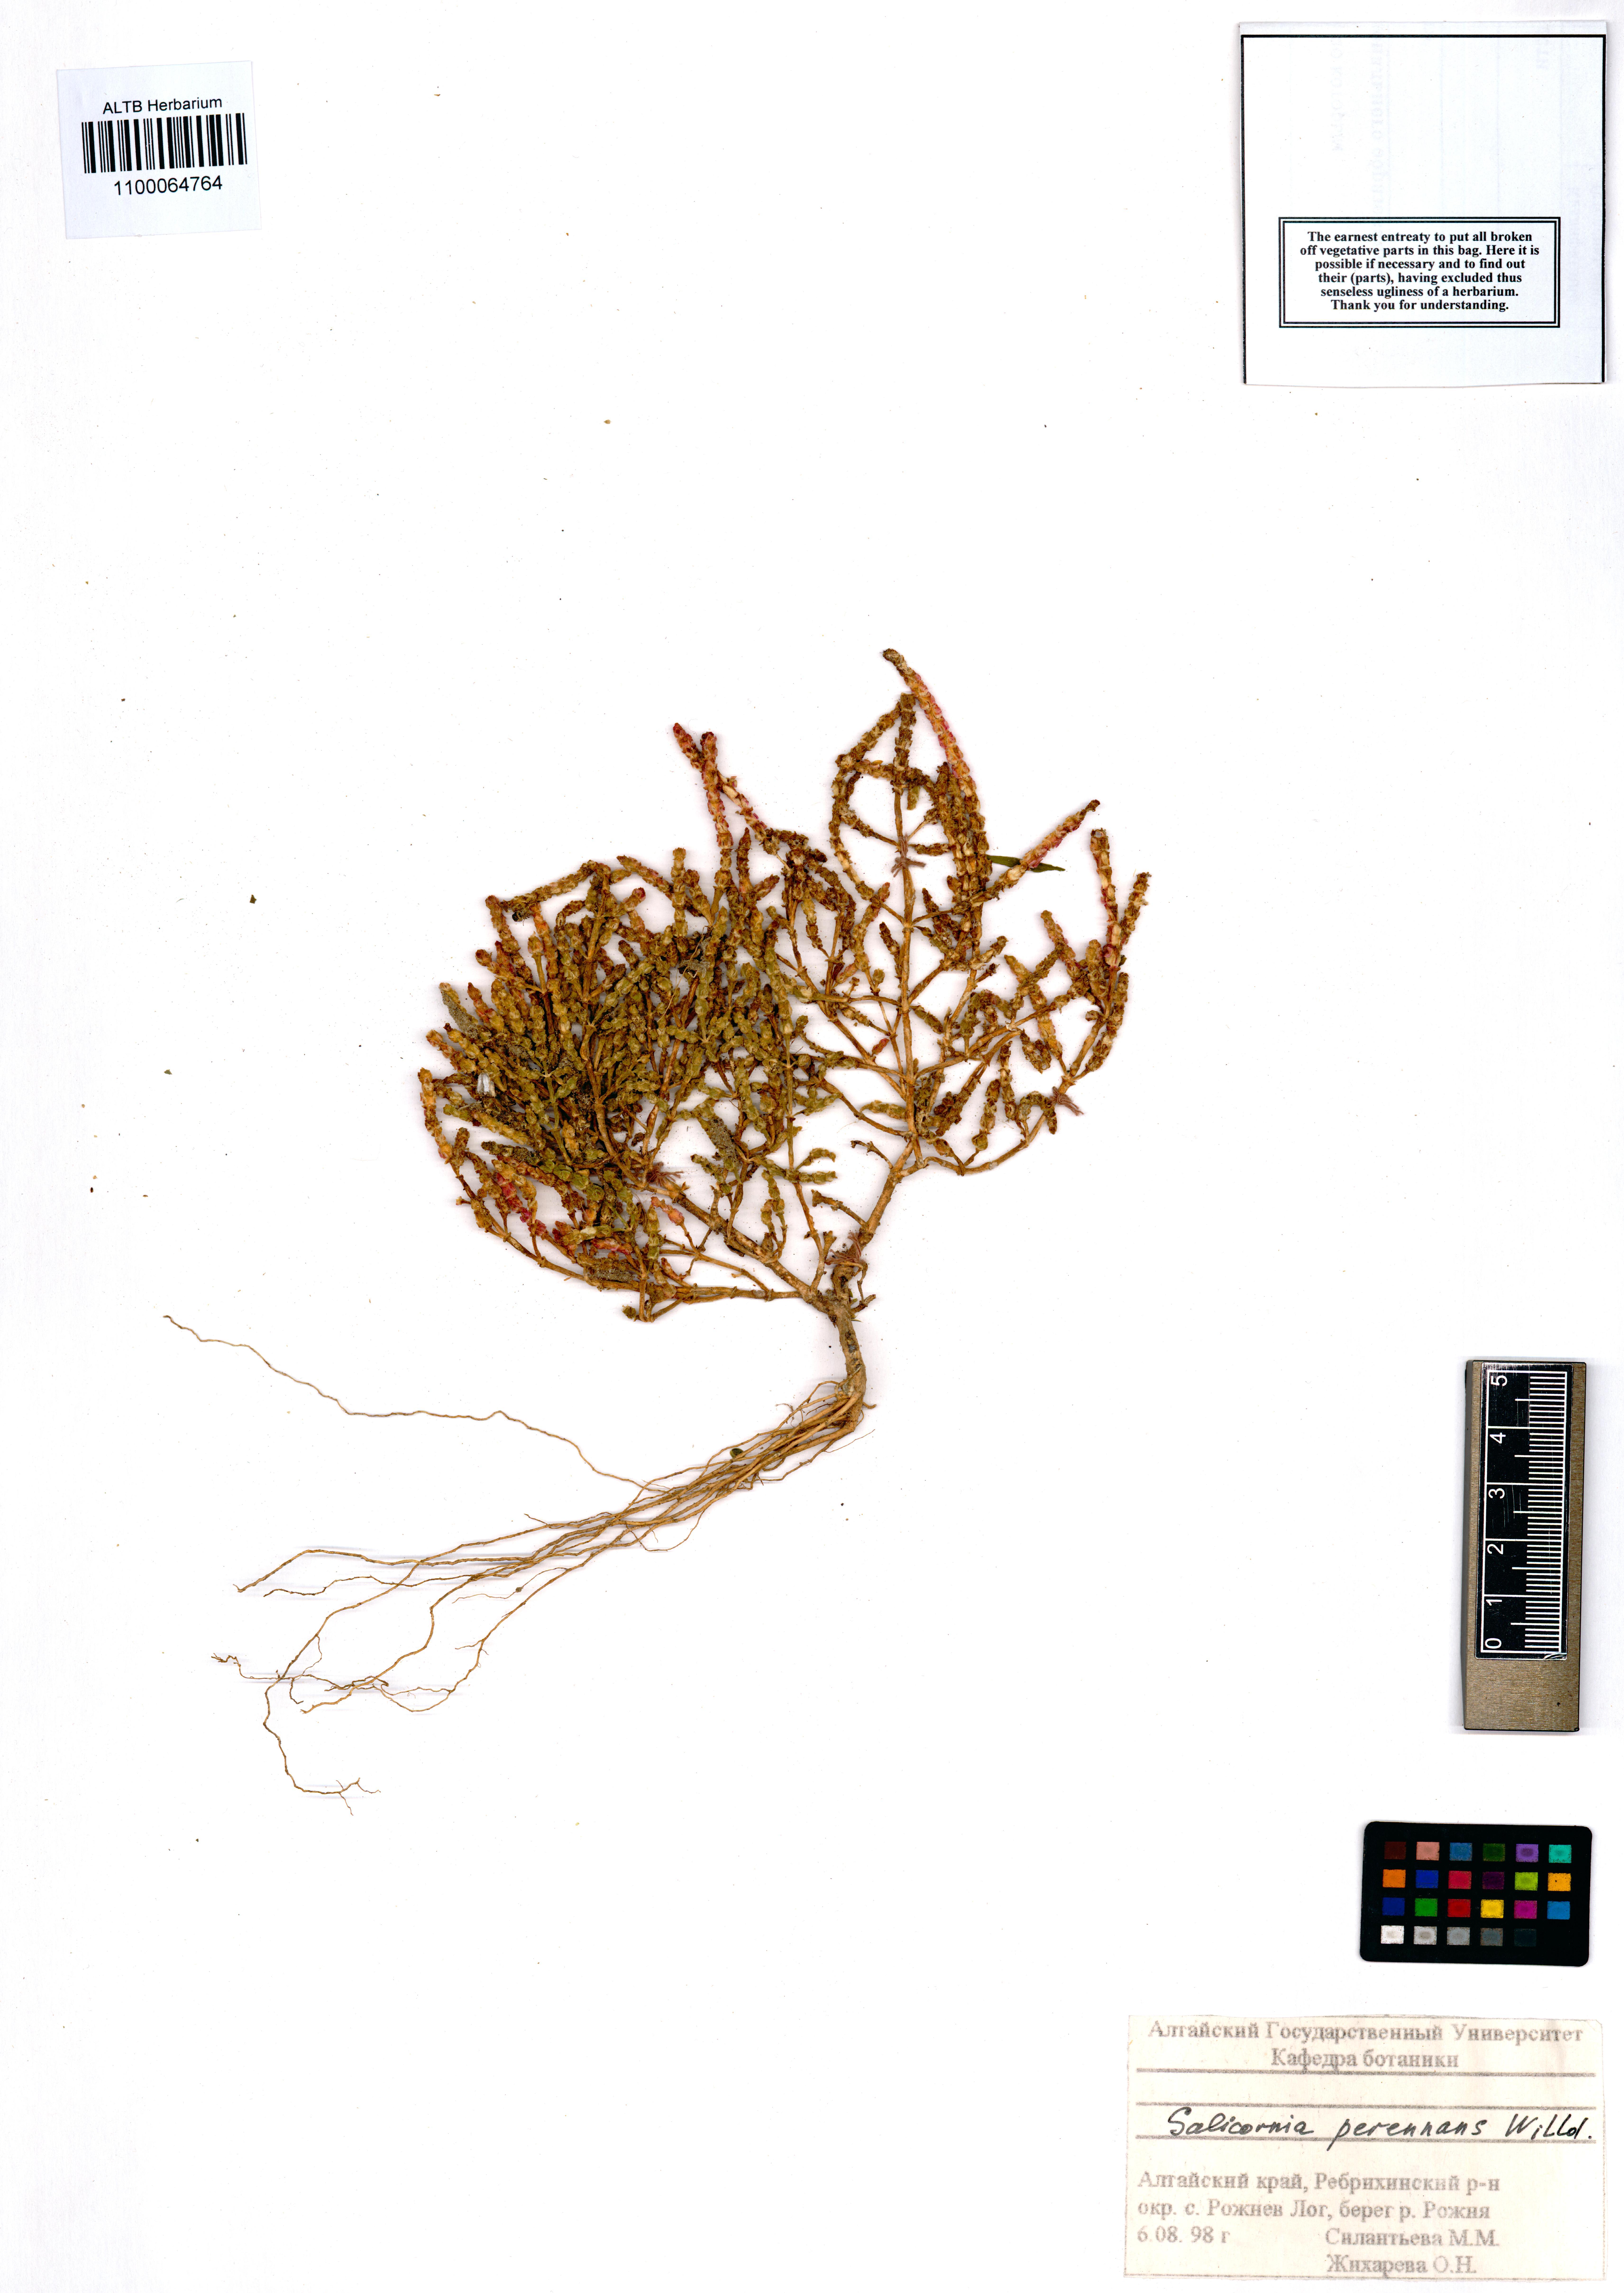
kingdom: Plantae
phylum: Tracheophyta
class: Magnoliopsida
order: Caryophyllales
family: Amaranthaceae
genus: Salicornia
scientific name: Salicornia perennans
